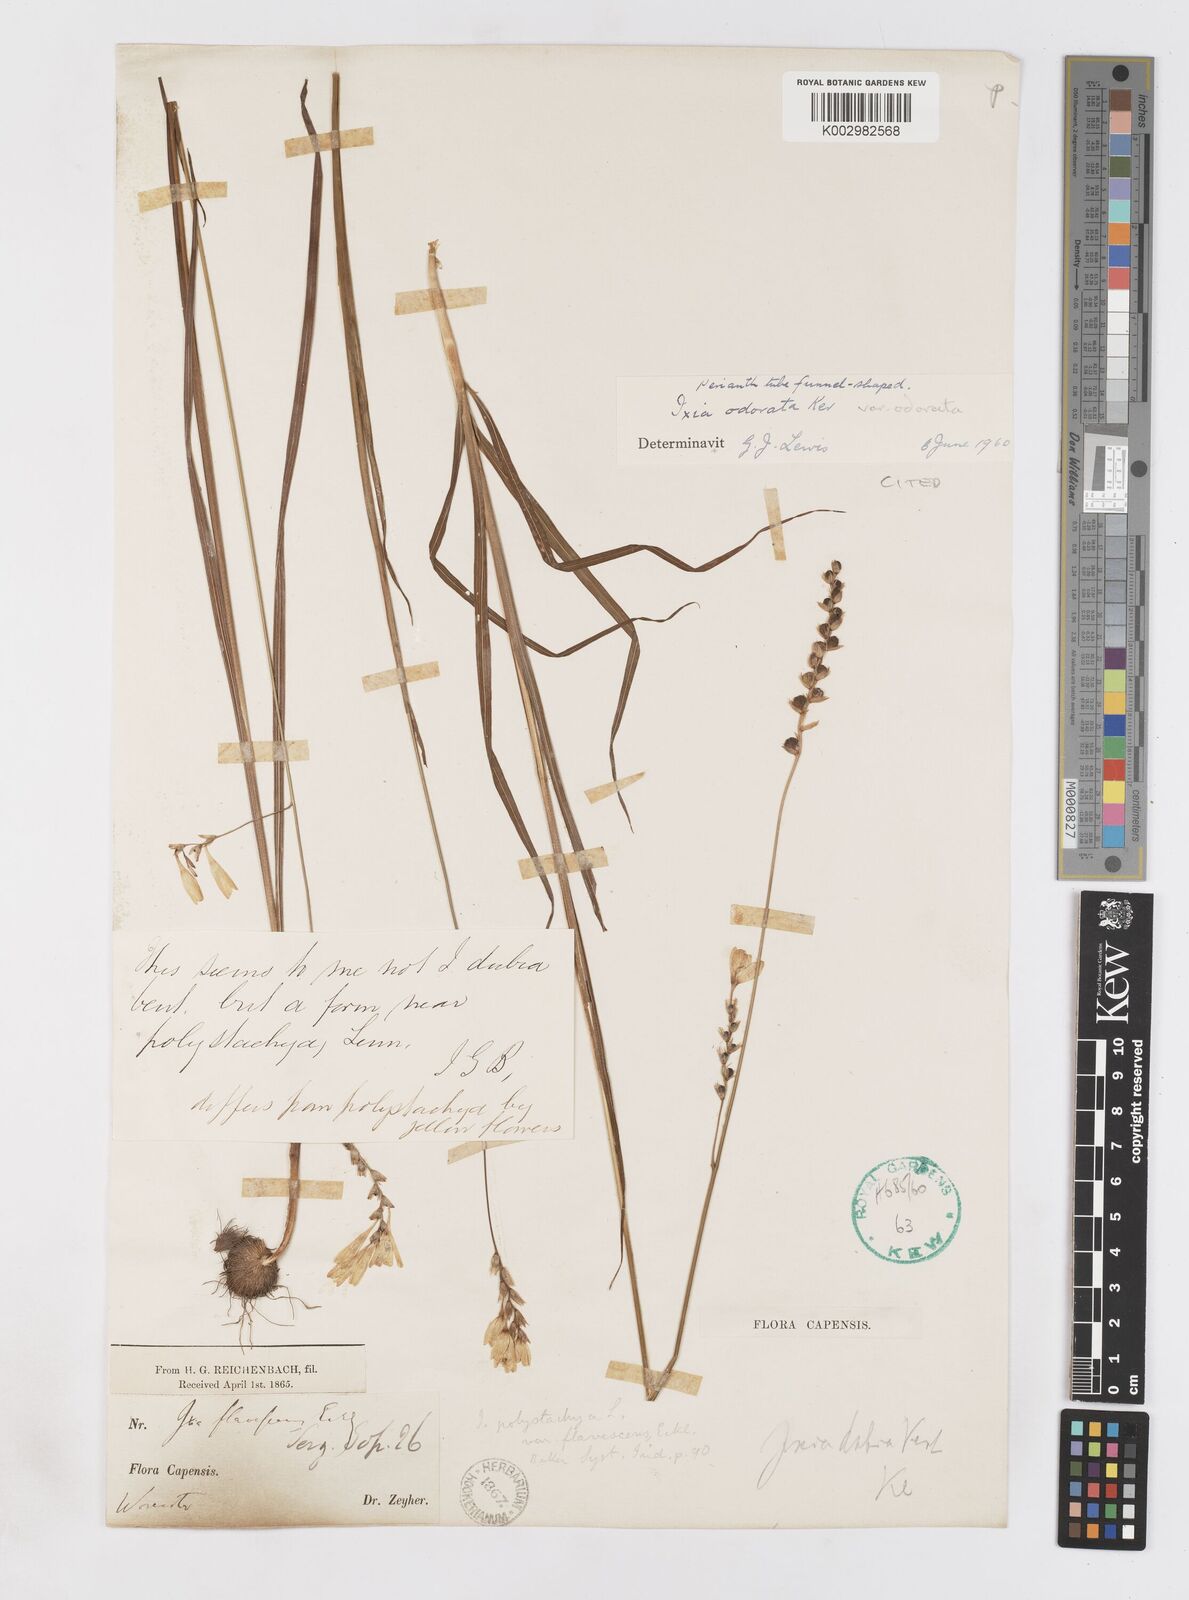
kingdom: Plantae
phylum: Tracheophyta
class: Liliopsida
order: Asparagales
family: Iridaceae
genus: Ixia
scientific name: Ixia odorata
